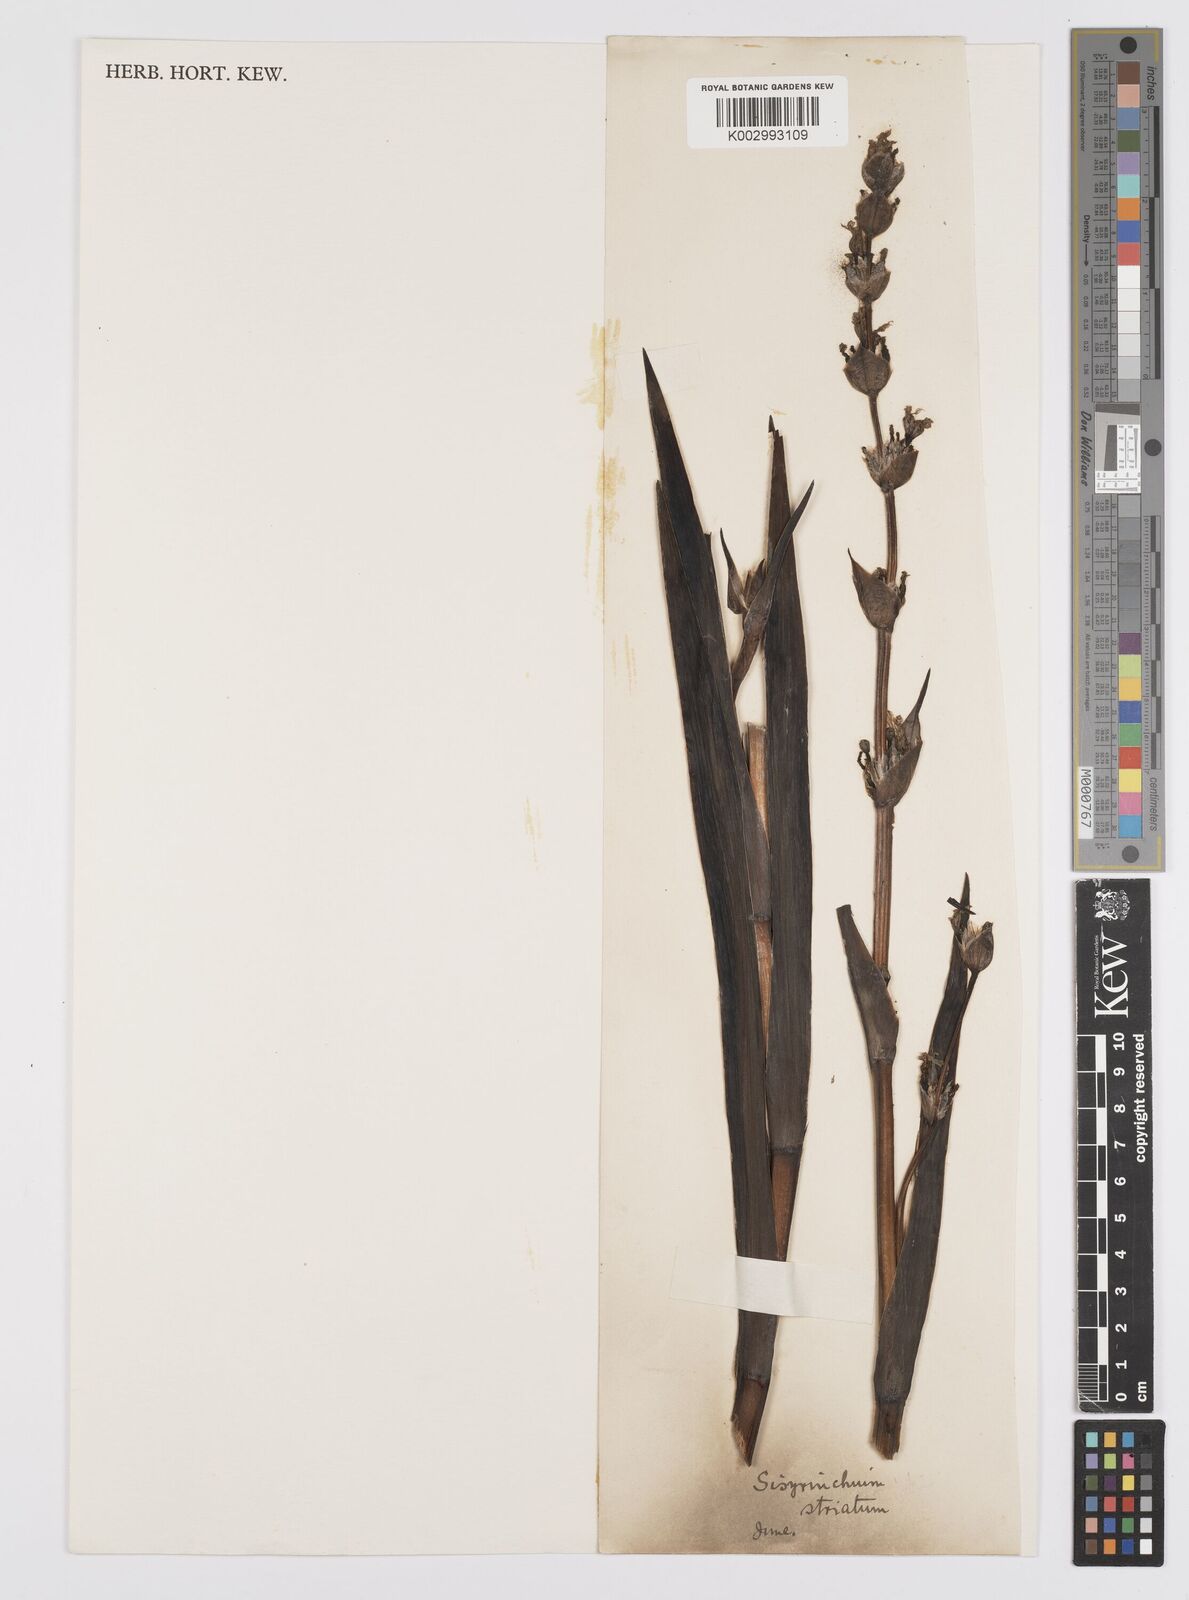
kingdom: Plantae
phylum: Tracheophyta
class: Liliopsida
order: Asparagales
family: Iridaceae
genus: Sisyrinchium
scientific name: Sisyrinchium striatum
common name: Pale yellow-eyed-grass
